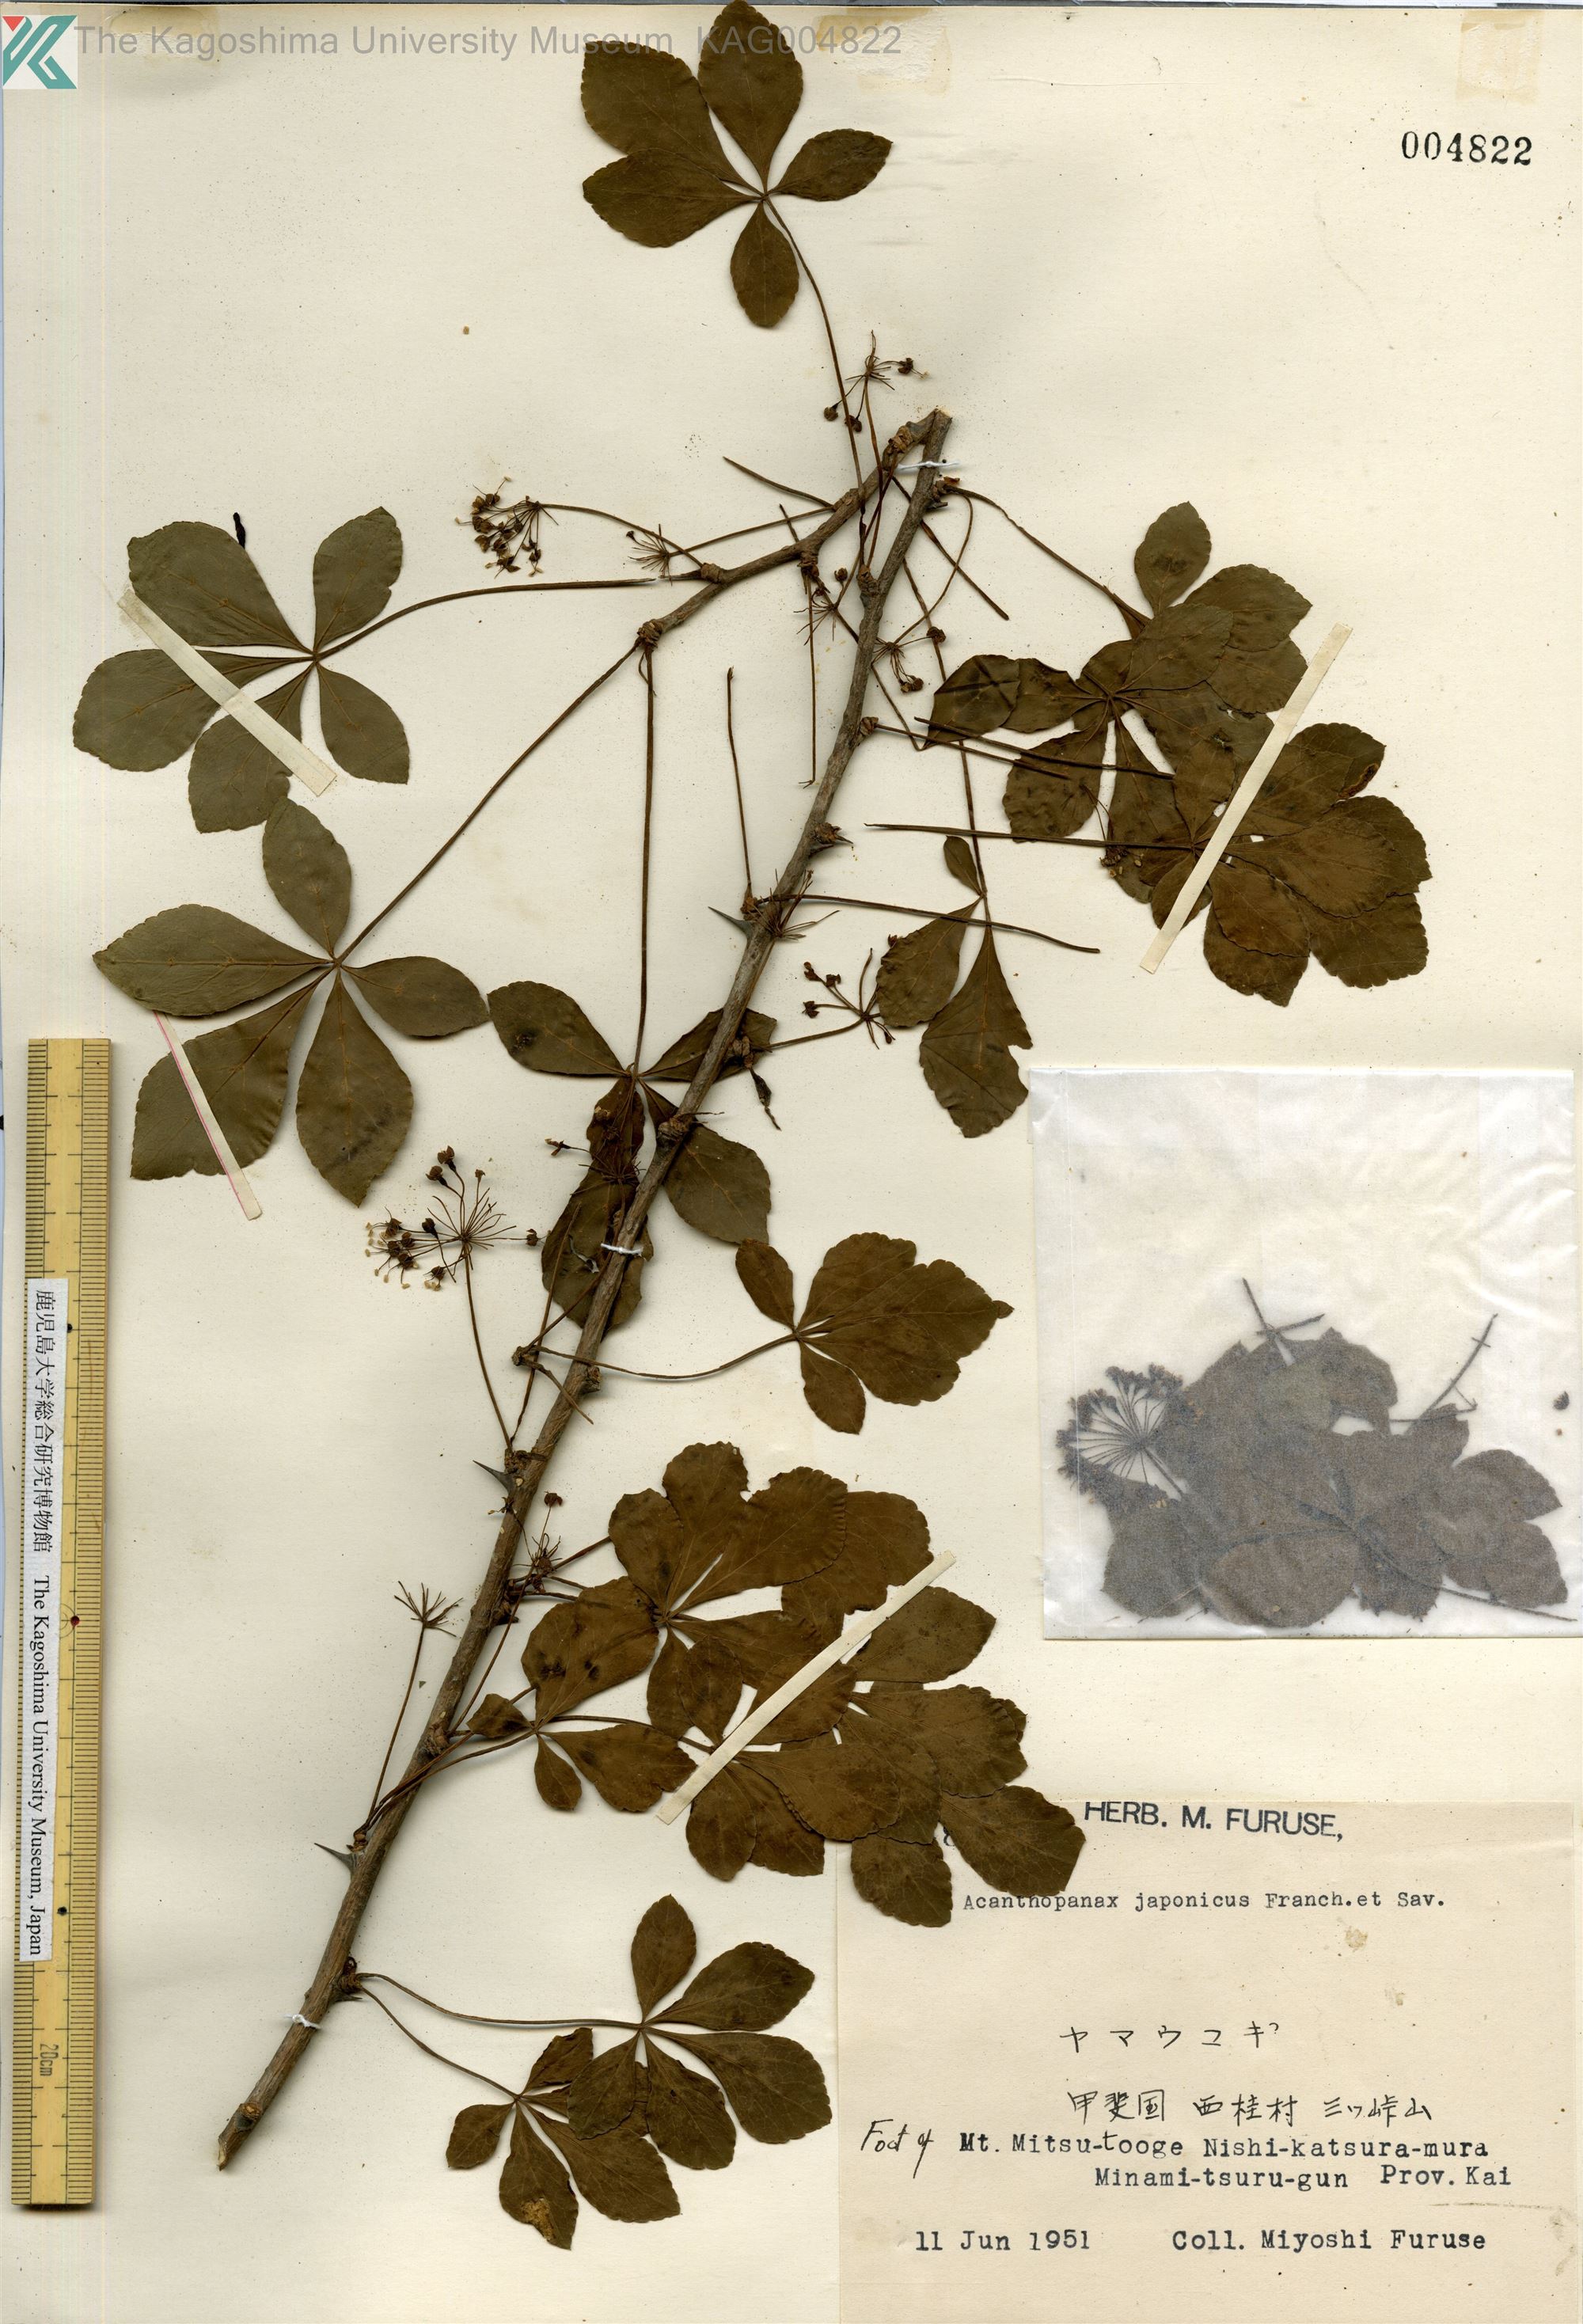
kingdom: Plantae
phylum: Tracheophyta
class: Magnoliopsida
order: Apiales
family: Araliaceae
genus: Eleutherococcus
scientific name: Eleutherococcus nodiflorus
